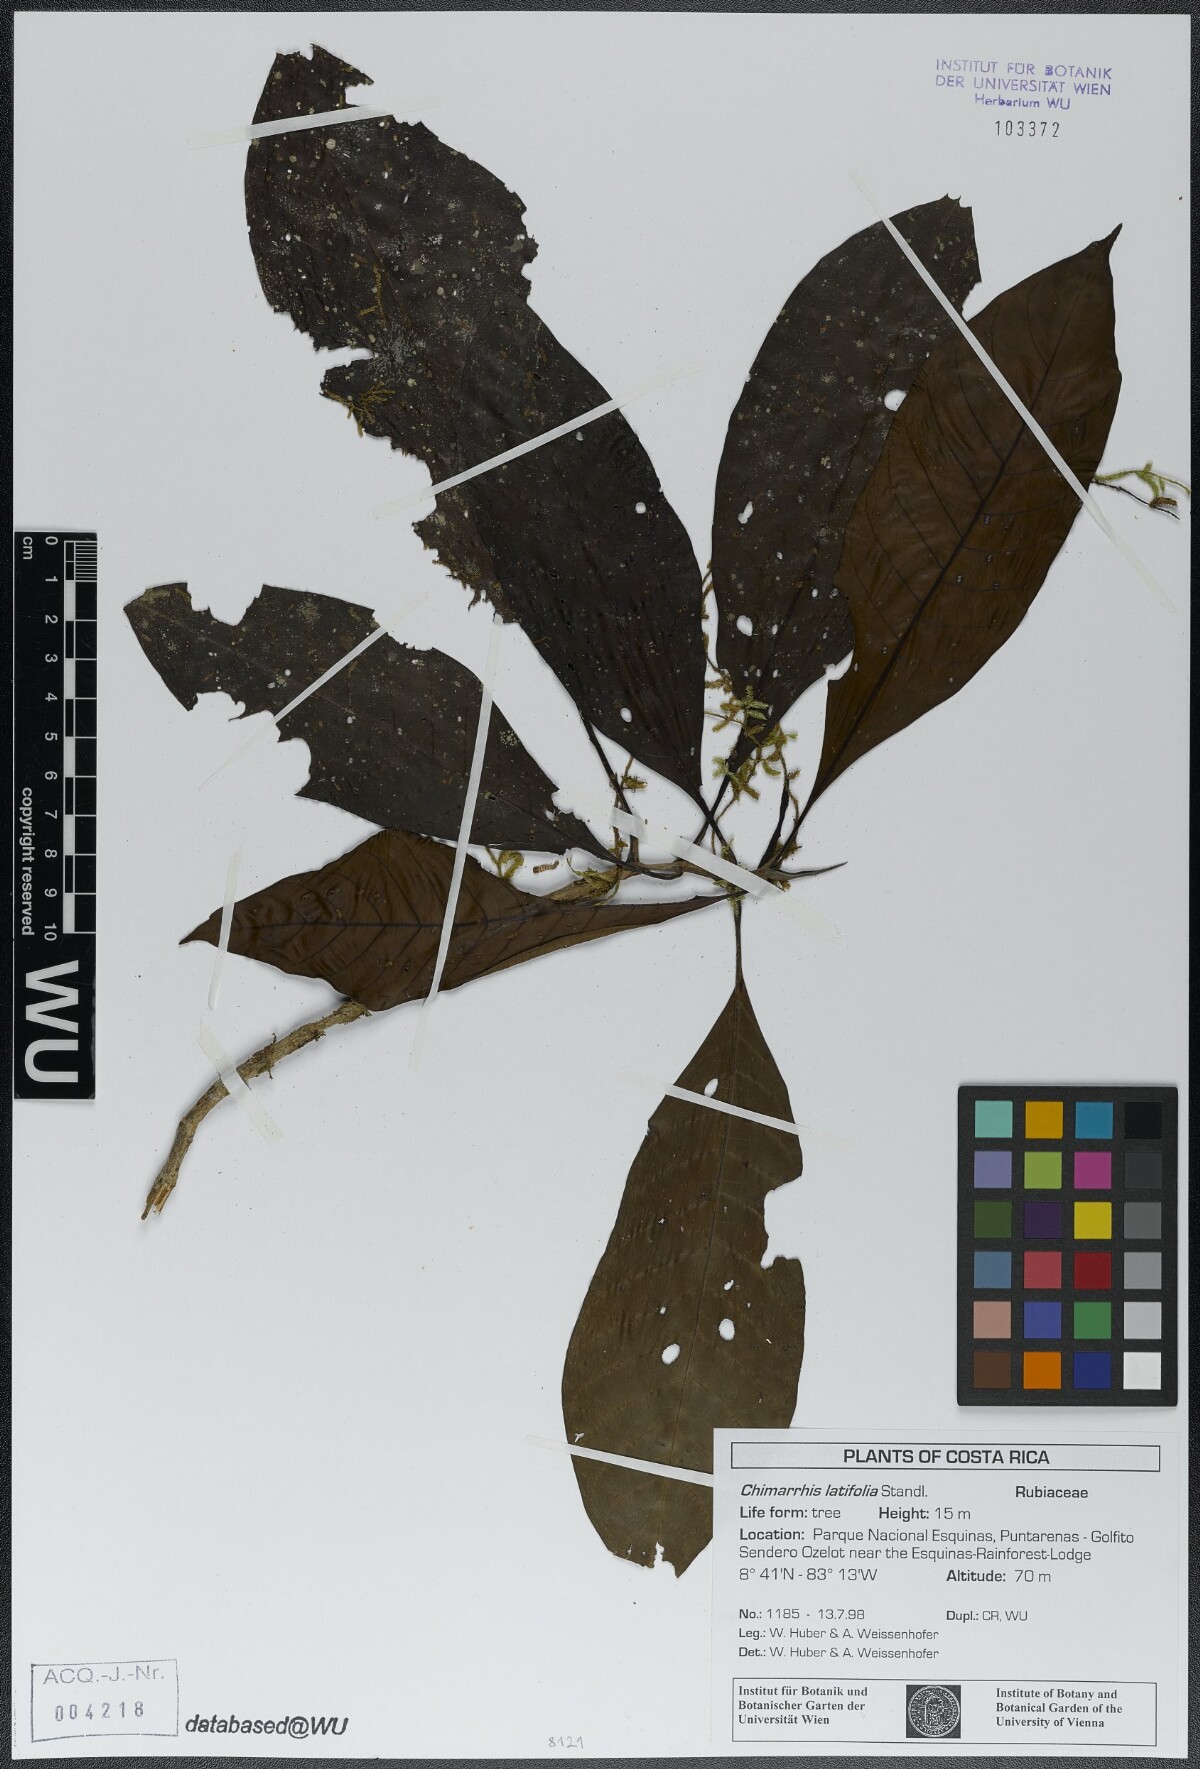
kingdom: Plantae
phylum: Tracheophyta
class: Magnoliopsida
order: Gentianales
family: Rubiaceae
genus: Chimarrhis
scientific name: Chimarrhis latifolia
